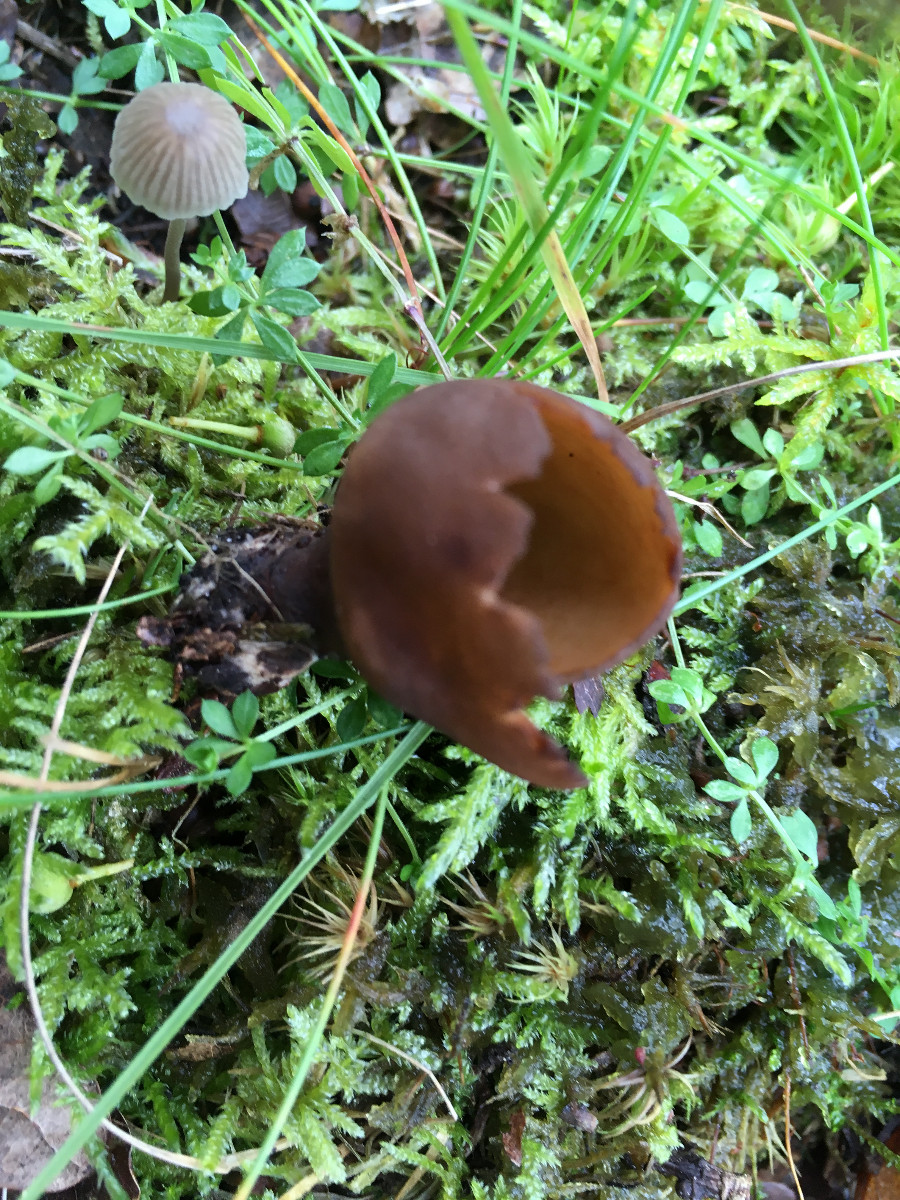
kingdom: Fungi
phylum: Ascomycota
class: Pezizomycetes
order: Pezizales
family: Otideaceae
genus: Otidea
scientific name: Otidea bufonia
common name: brun ørebæger
